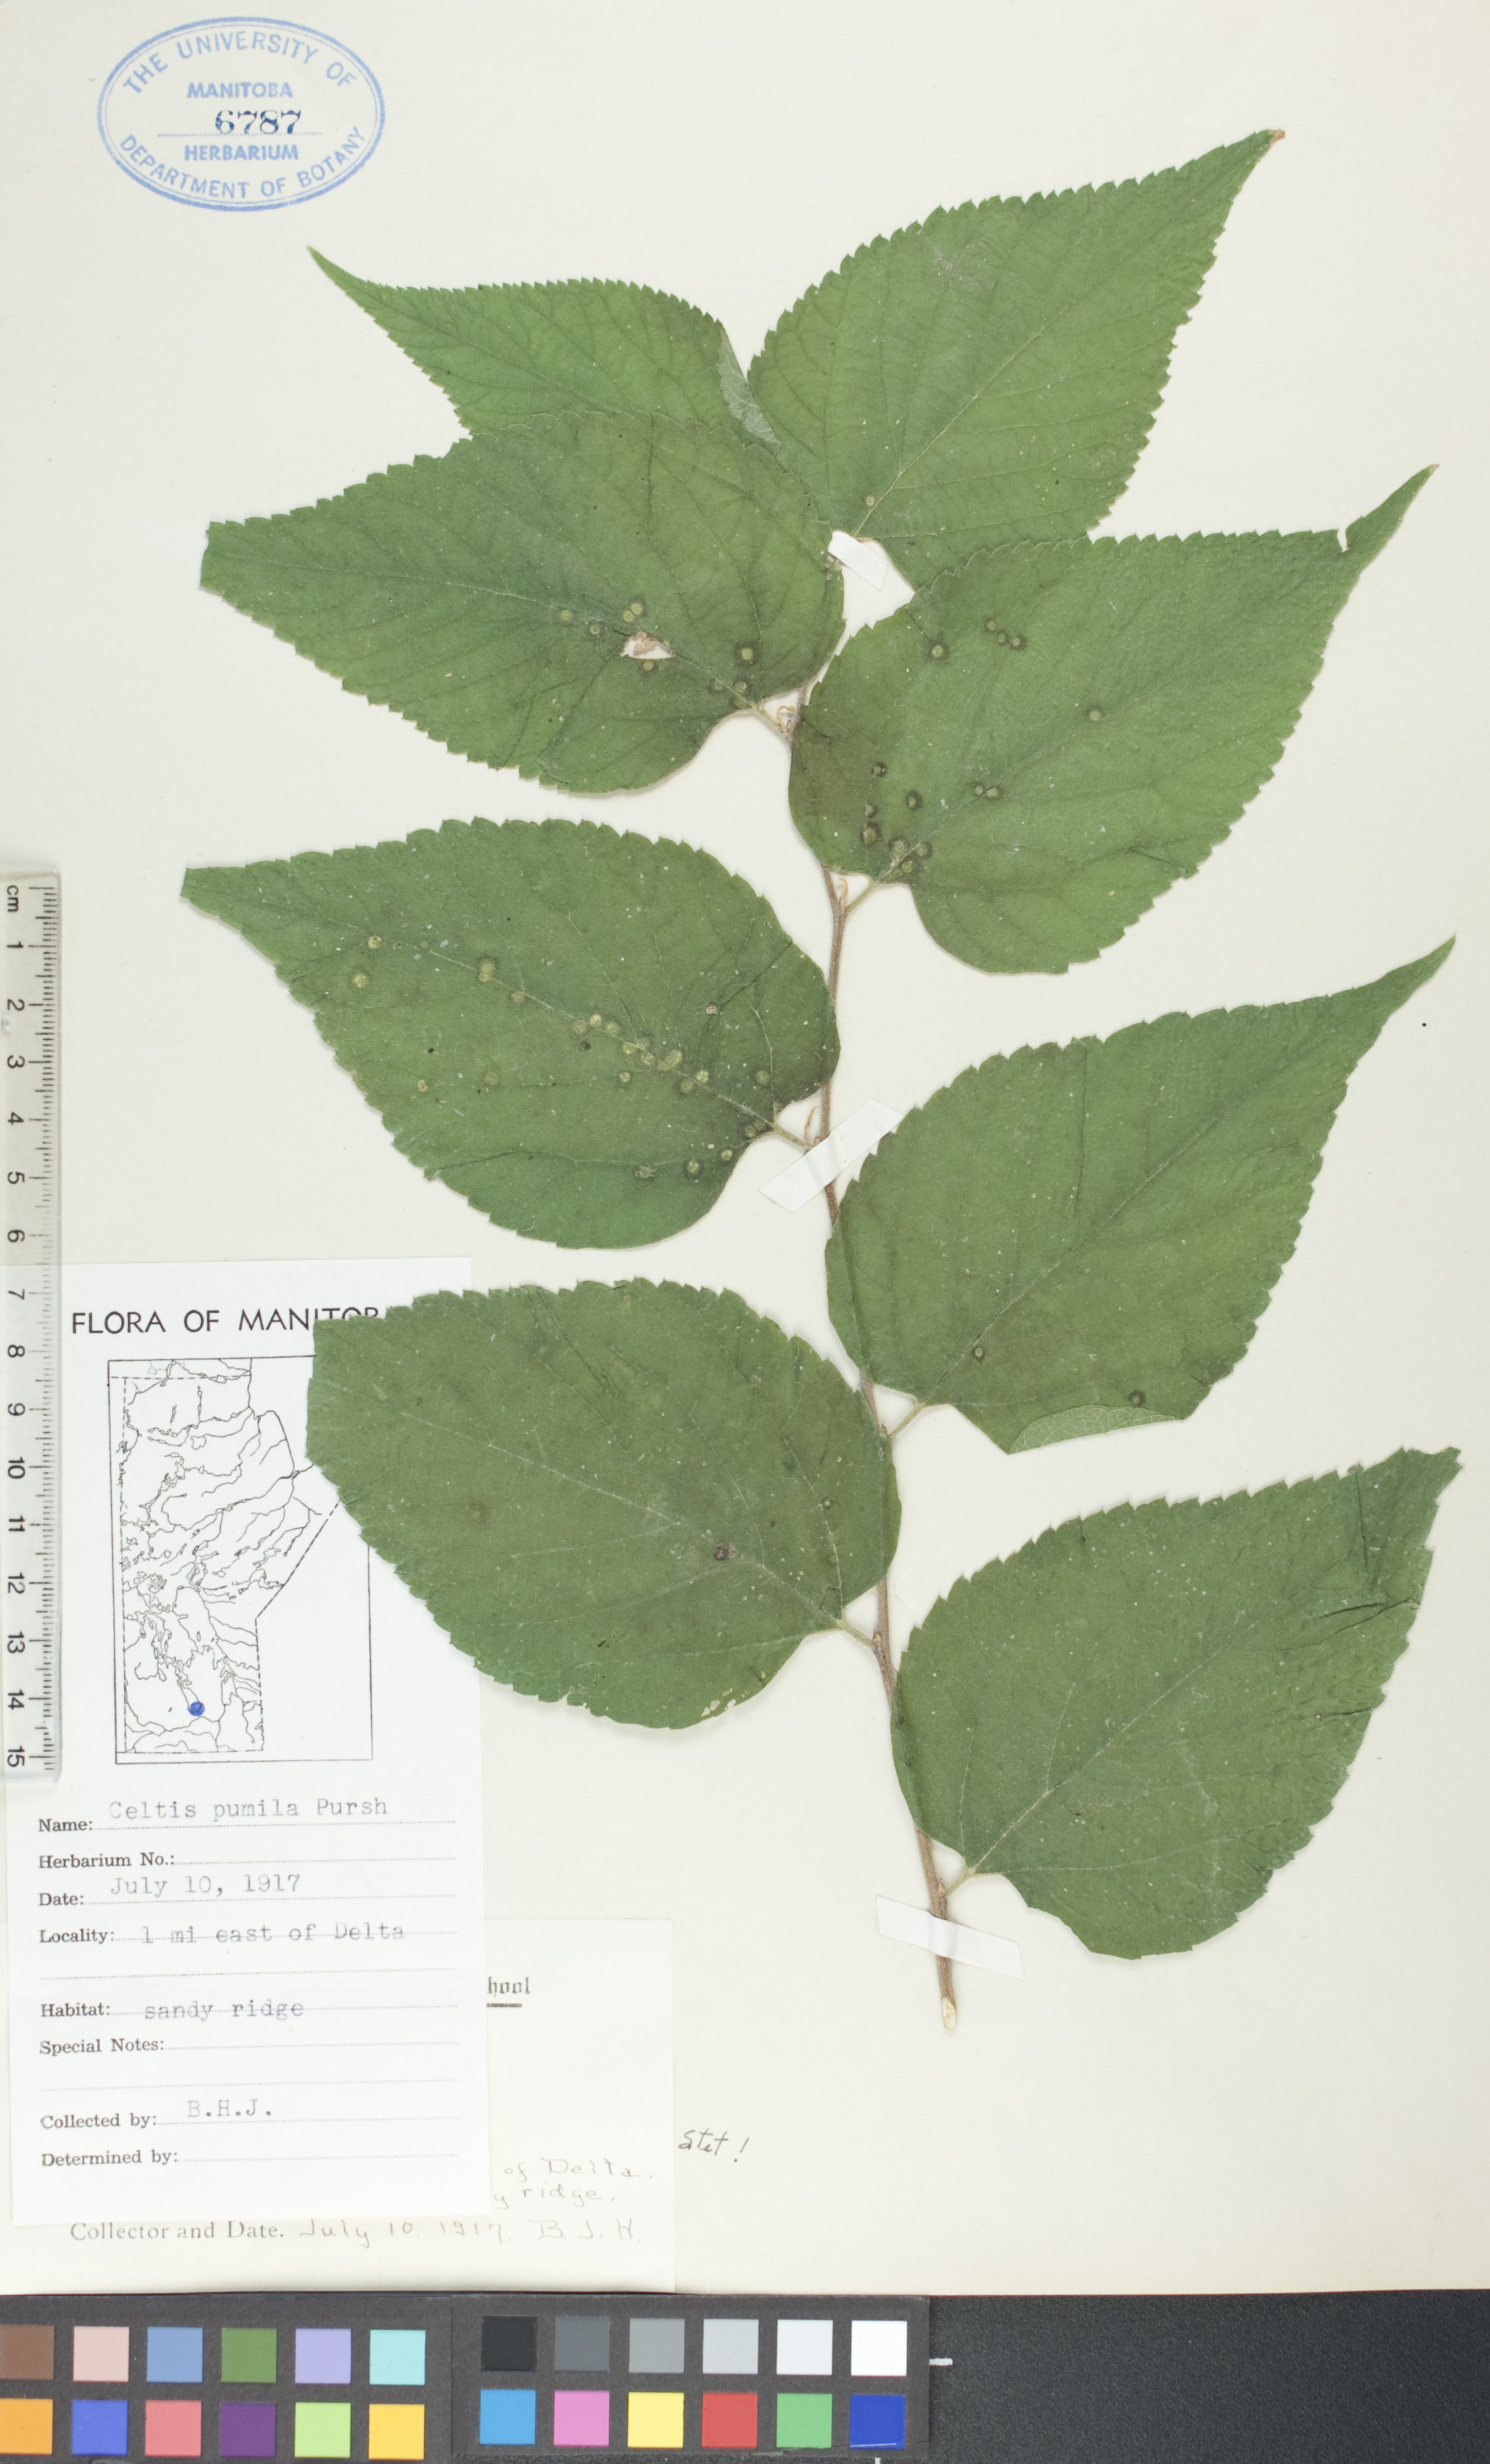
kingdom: Plantae
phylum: Tracheophyta
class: Magnoliopsida
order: Rosales
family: Cannabaceae
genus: Celtis
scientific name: Celtis occidentalis
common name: Common hackberry
